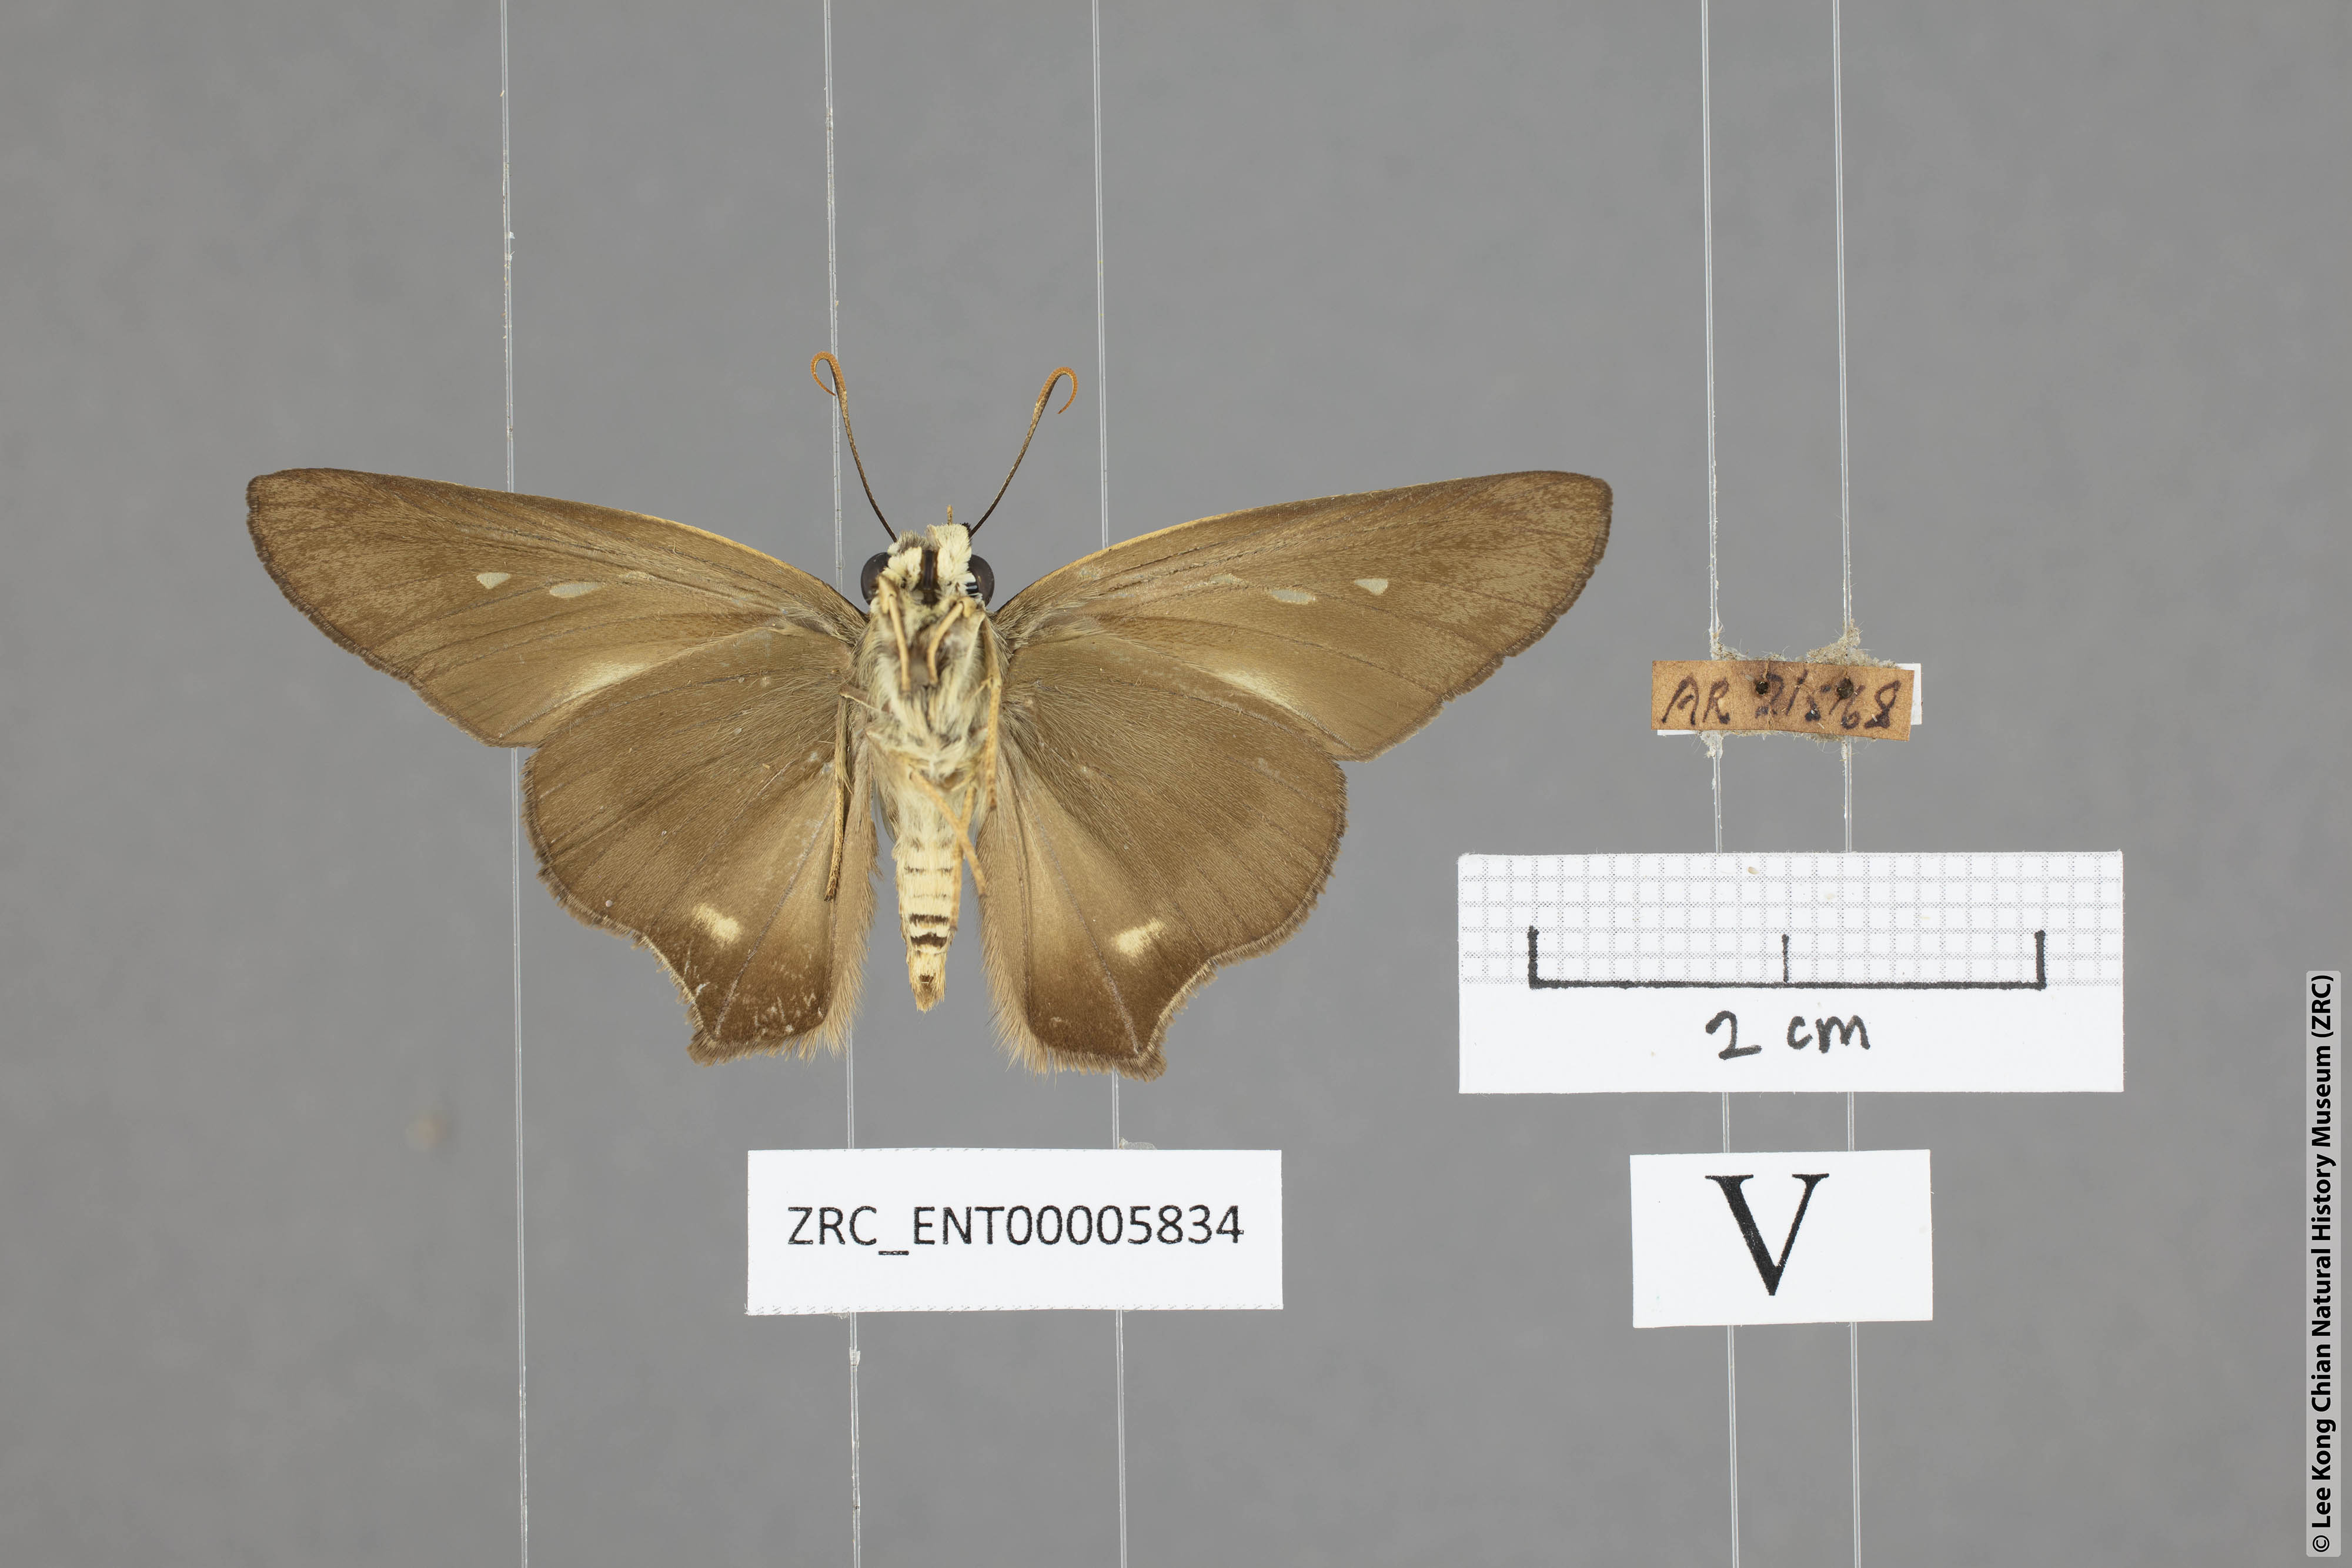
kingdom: Animalia
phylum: Arthropoda
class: Insecta
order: Lepidoptera
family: Hesperiidae
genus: Badamia
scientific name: Badamia exclamationis
